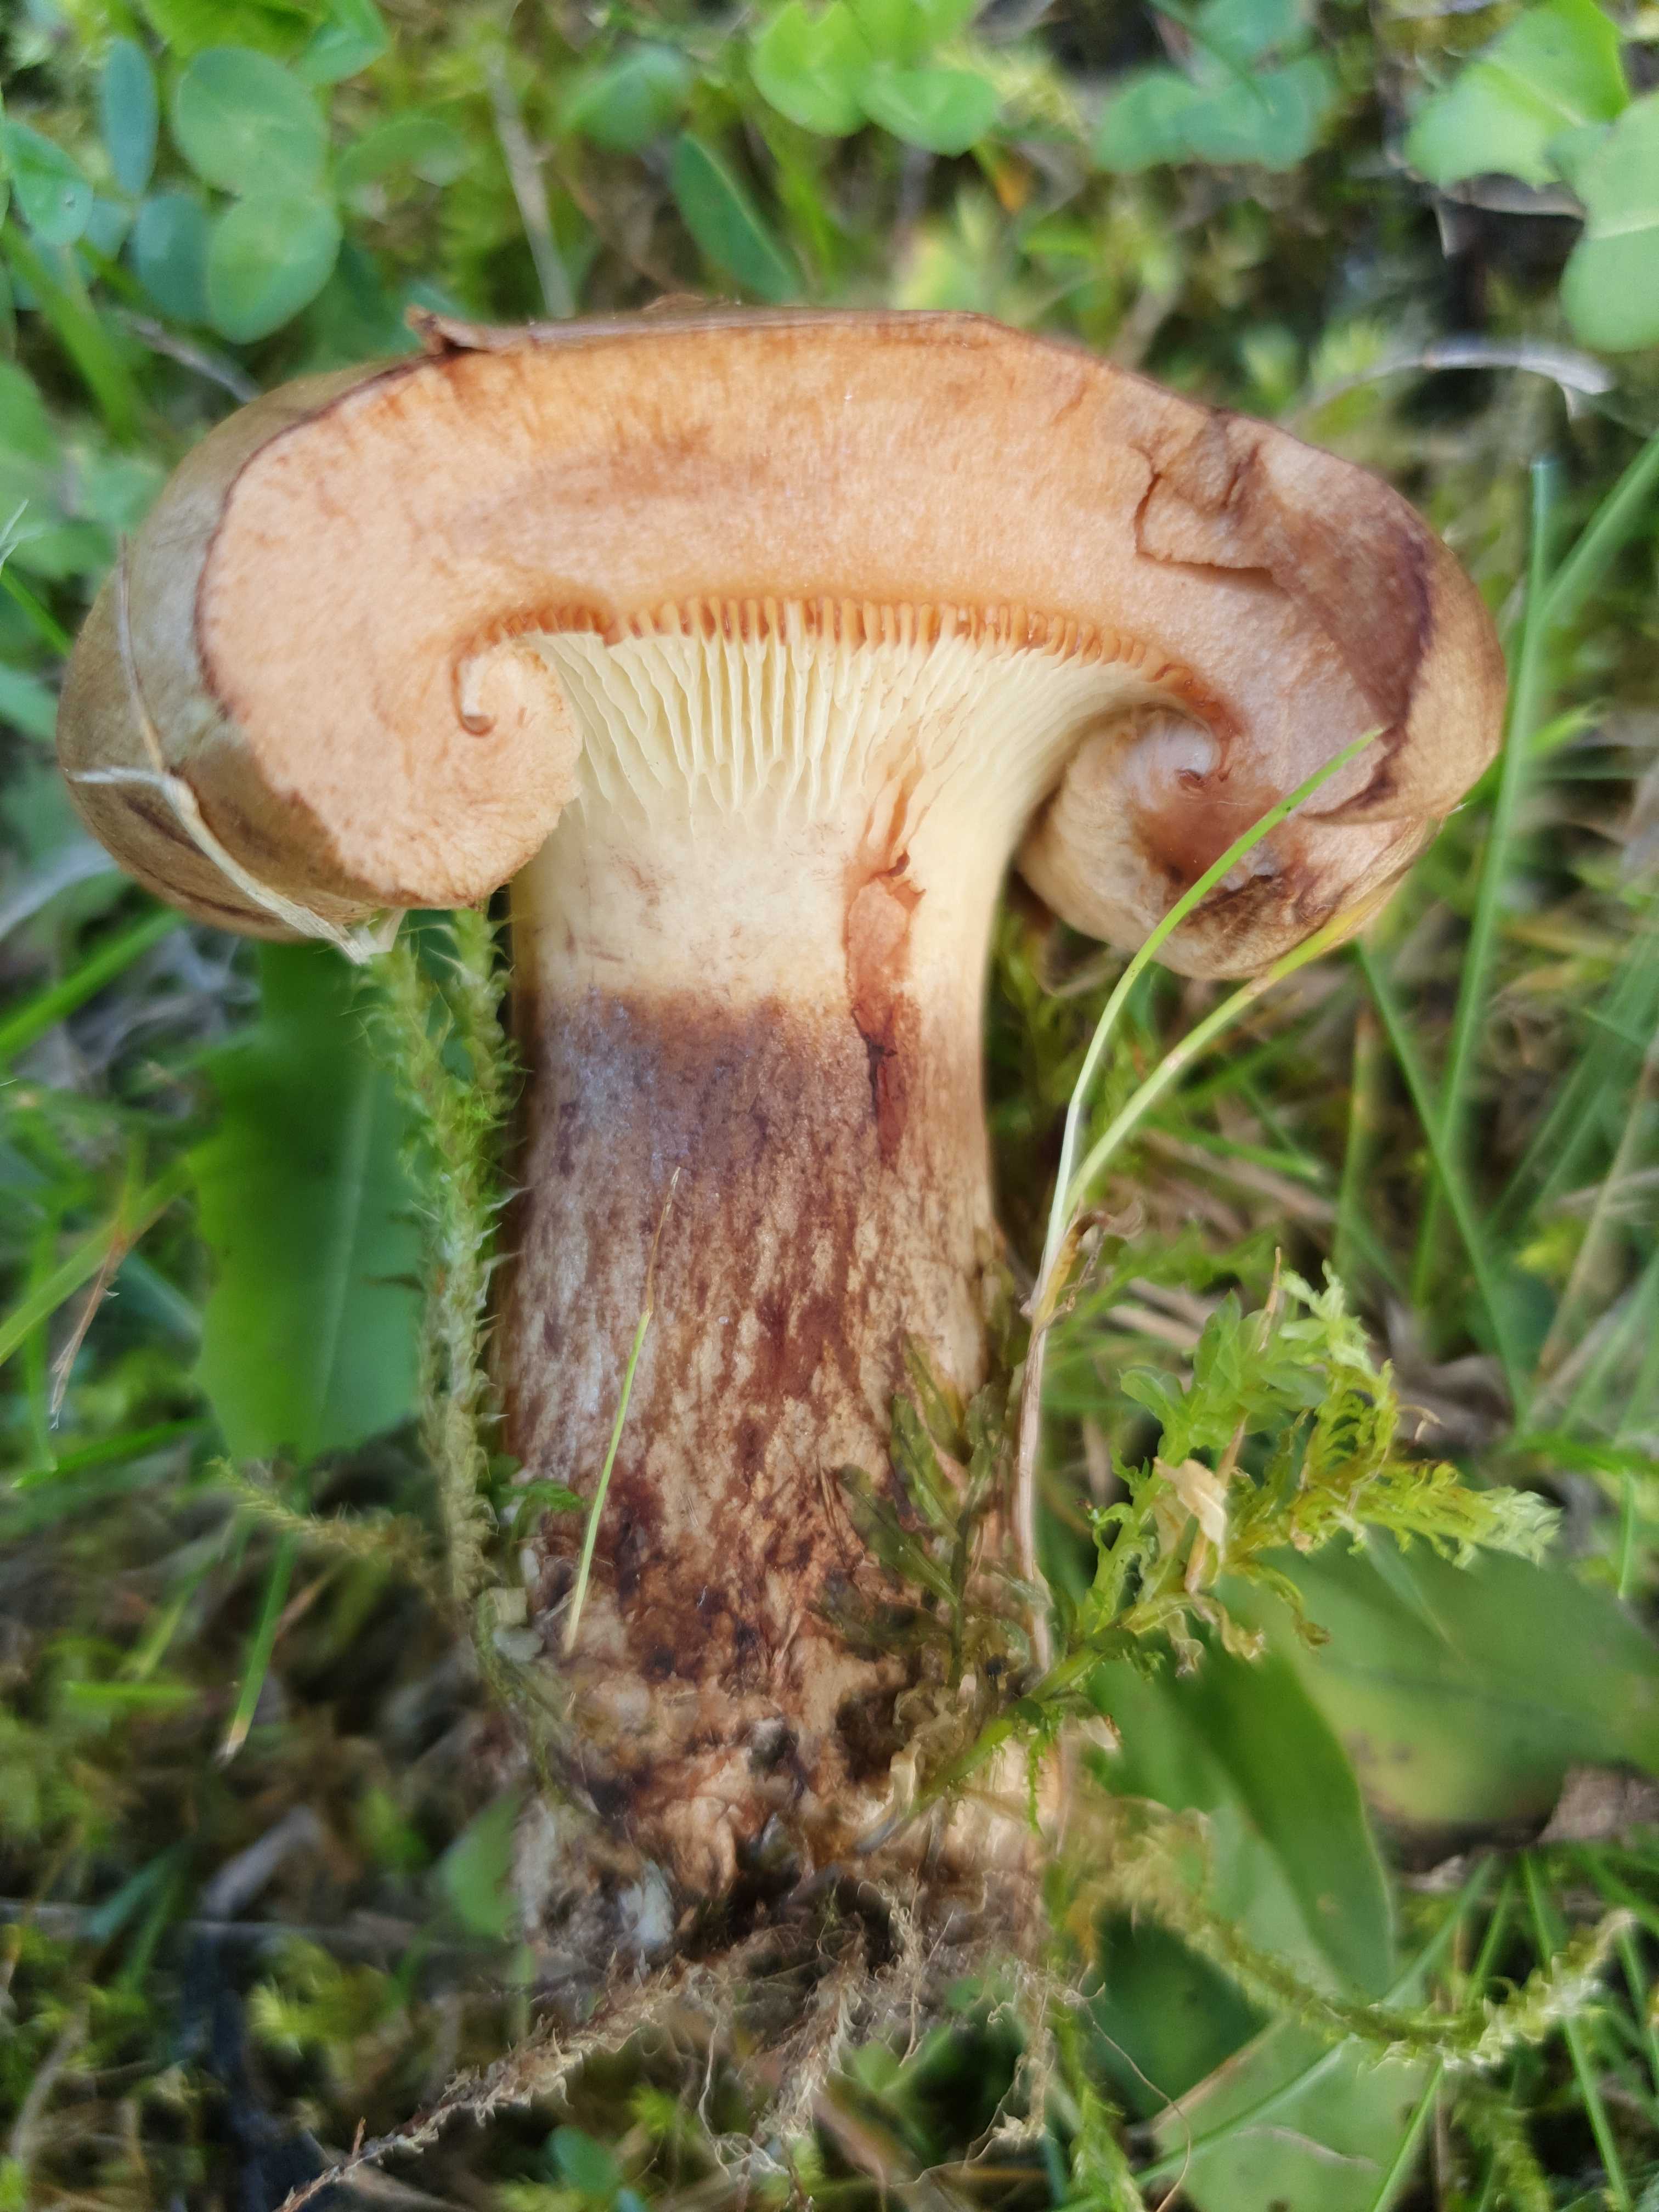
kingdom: Fungi
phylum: Basidiomycota
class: Agaricomycetes
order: Boletales
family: Paxillaceae
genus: Paxillus
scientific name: Paxillus ammoniavirescens
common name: olivensporet netbladhat
